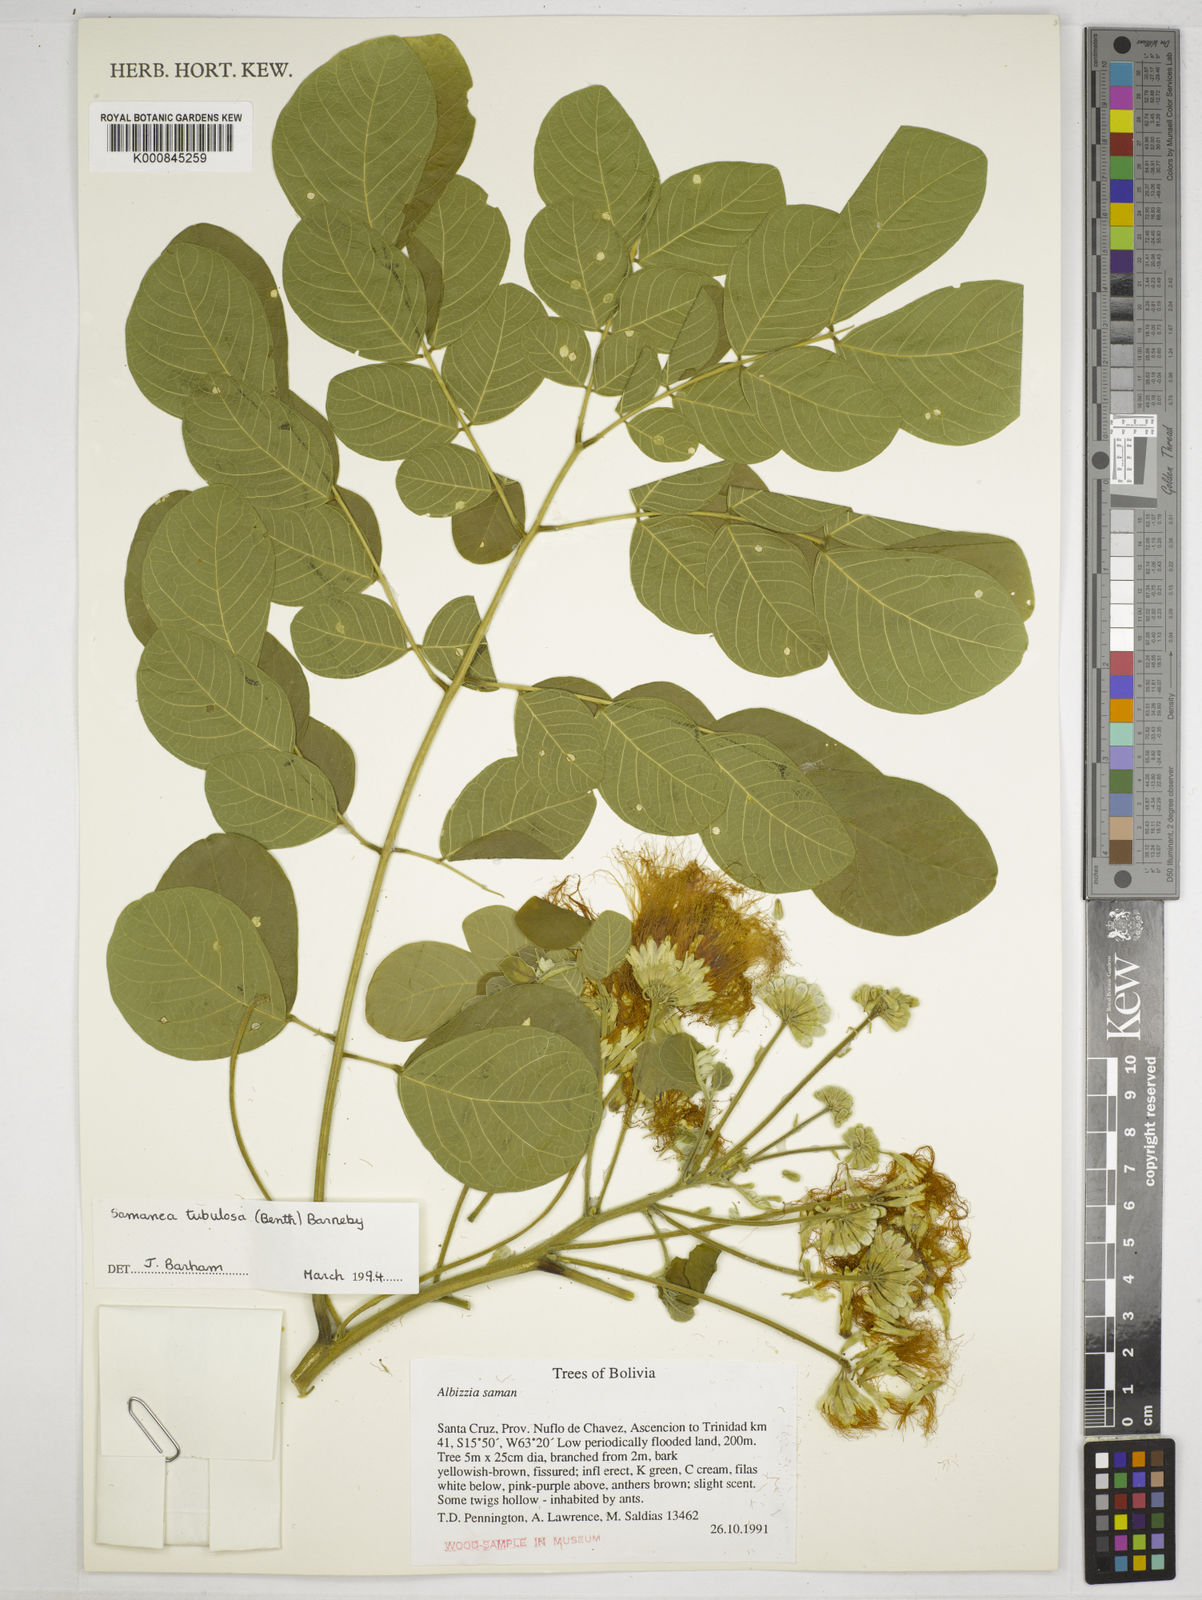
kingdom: Plantae
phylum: Tracheophyta
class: Magnoliopsida
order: Fabales
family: Fabaceae
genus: Samanea
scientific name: Samanea tubulosa
